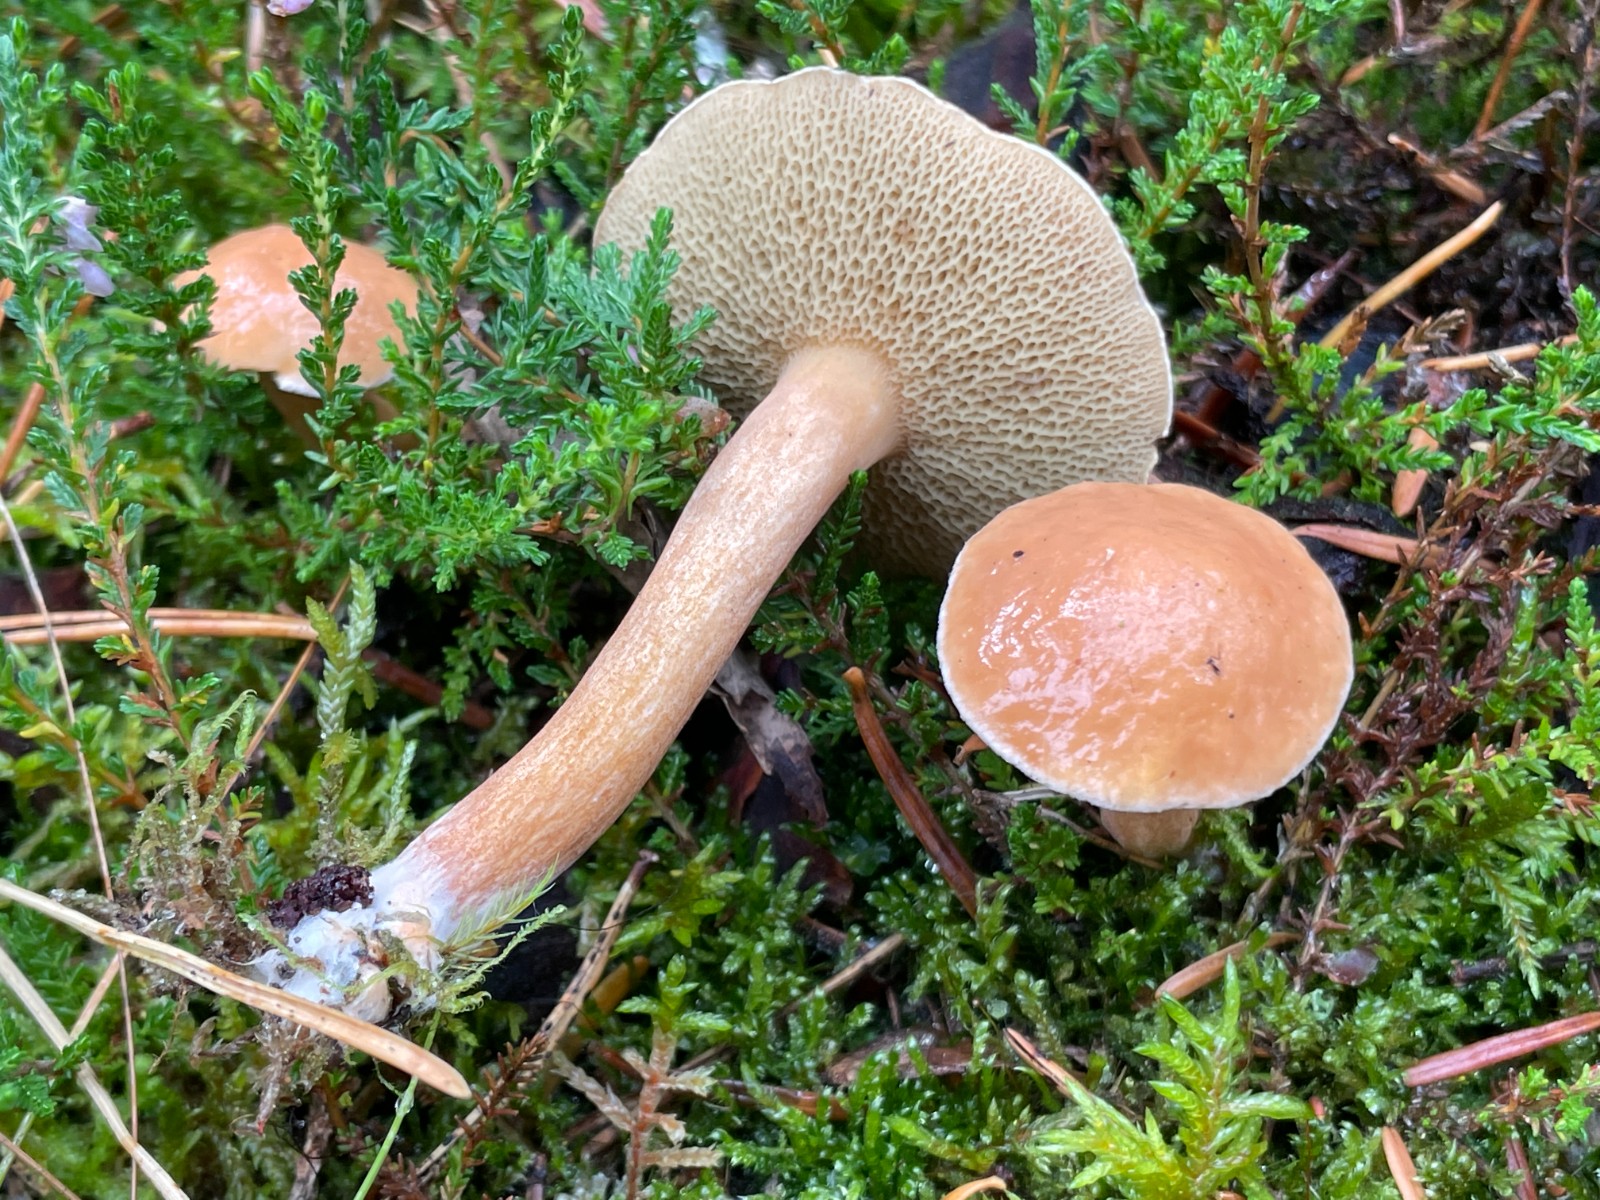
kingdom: Fungi
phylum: Basidiomycota
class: Agaricomycetes
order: Boletales
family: Suillaceae
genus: Suillus
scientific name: Suillus bovinus
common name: grovporet slimrørhat
